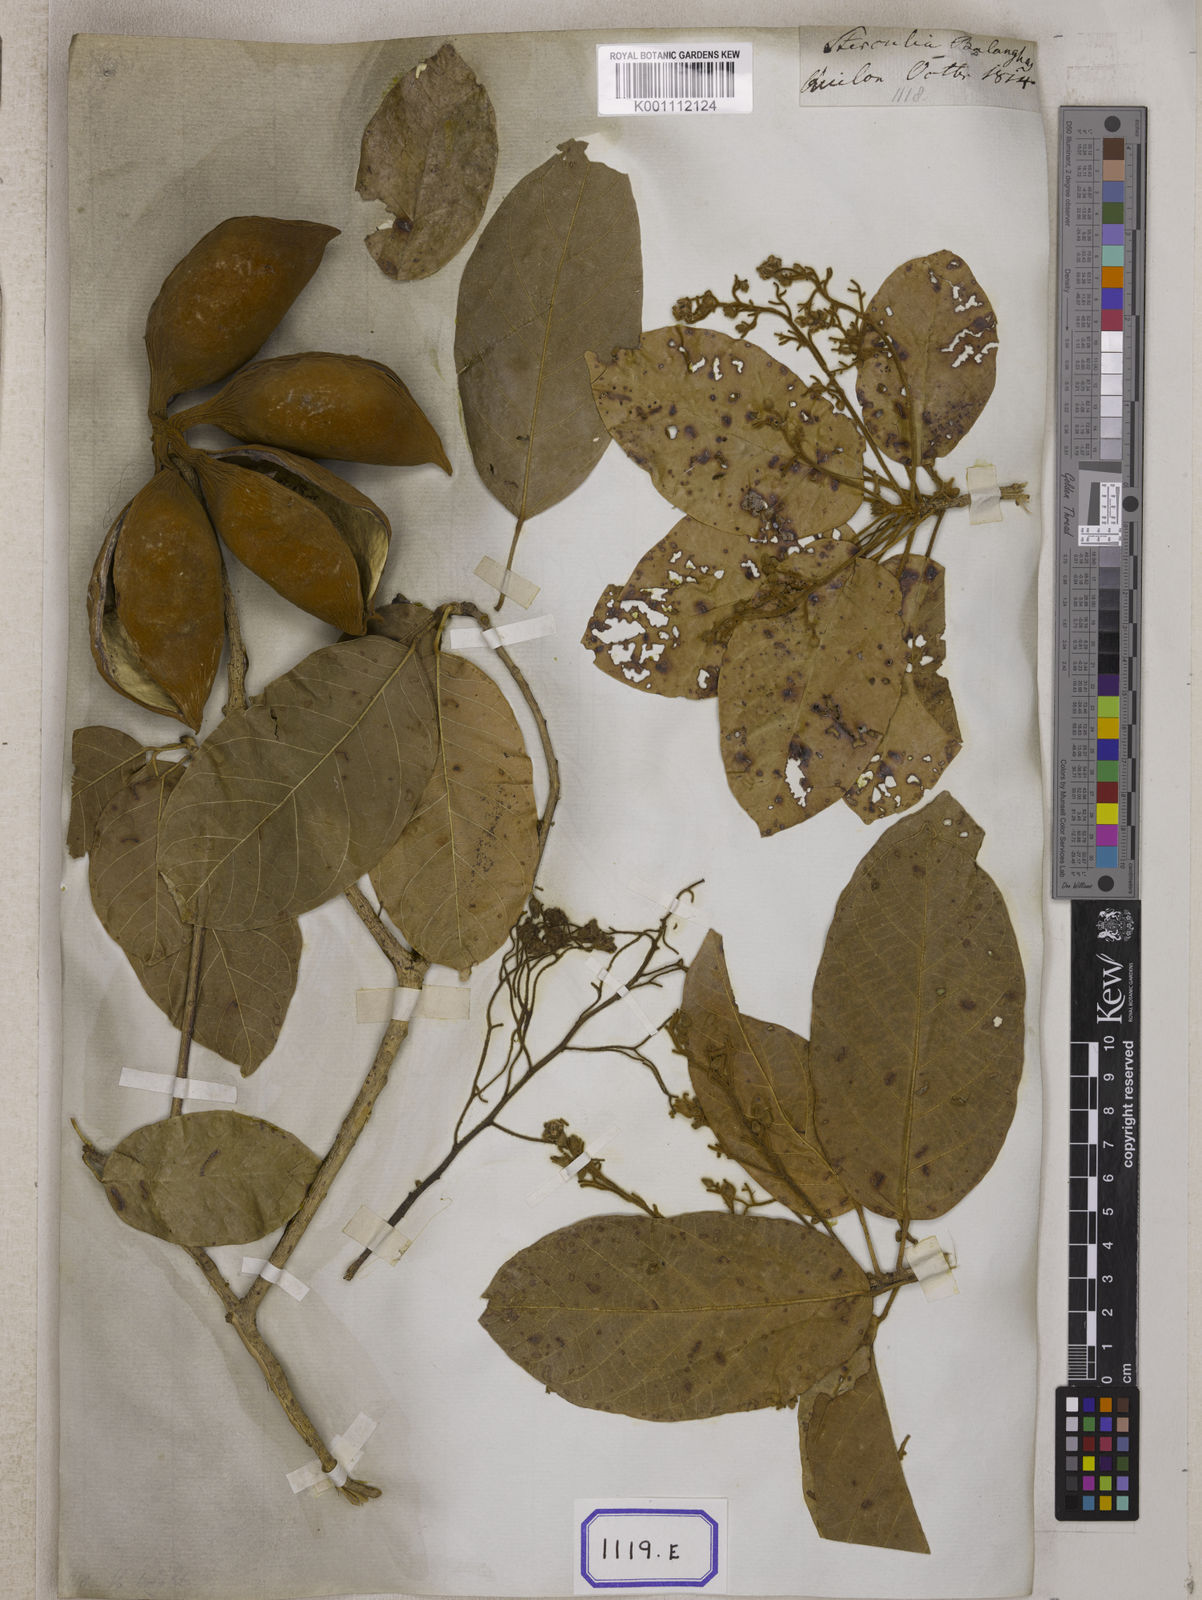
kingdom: Plantae
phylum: Tracheophyta
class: Magnoliopsida
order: Malvales
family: Malvaceae
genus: Firmiana
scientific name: Firmiana colorata
